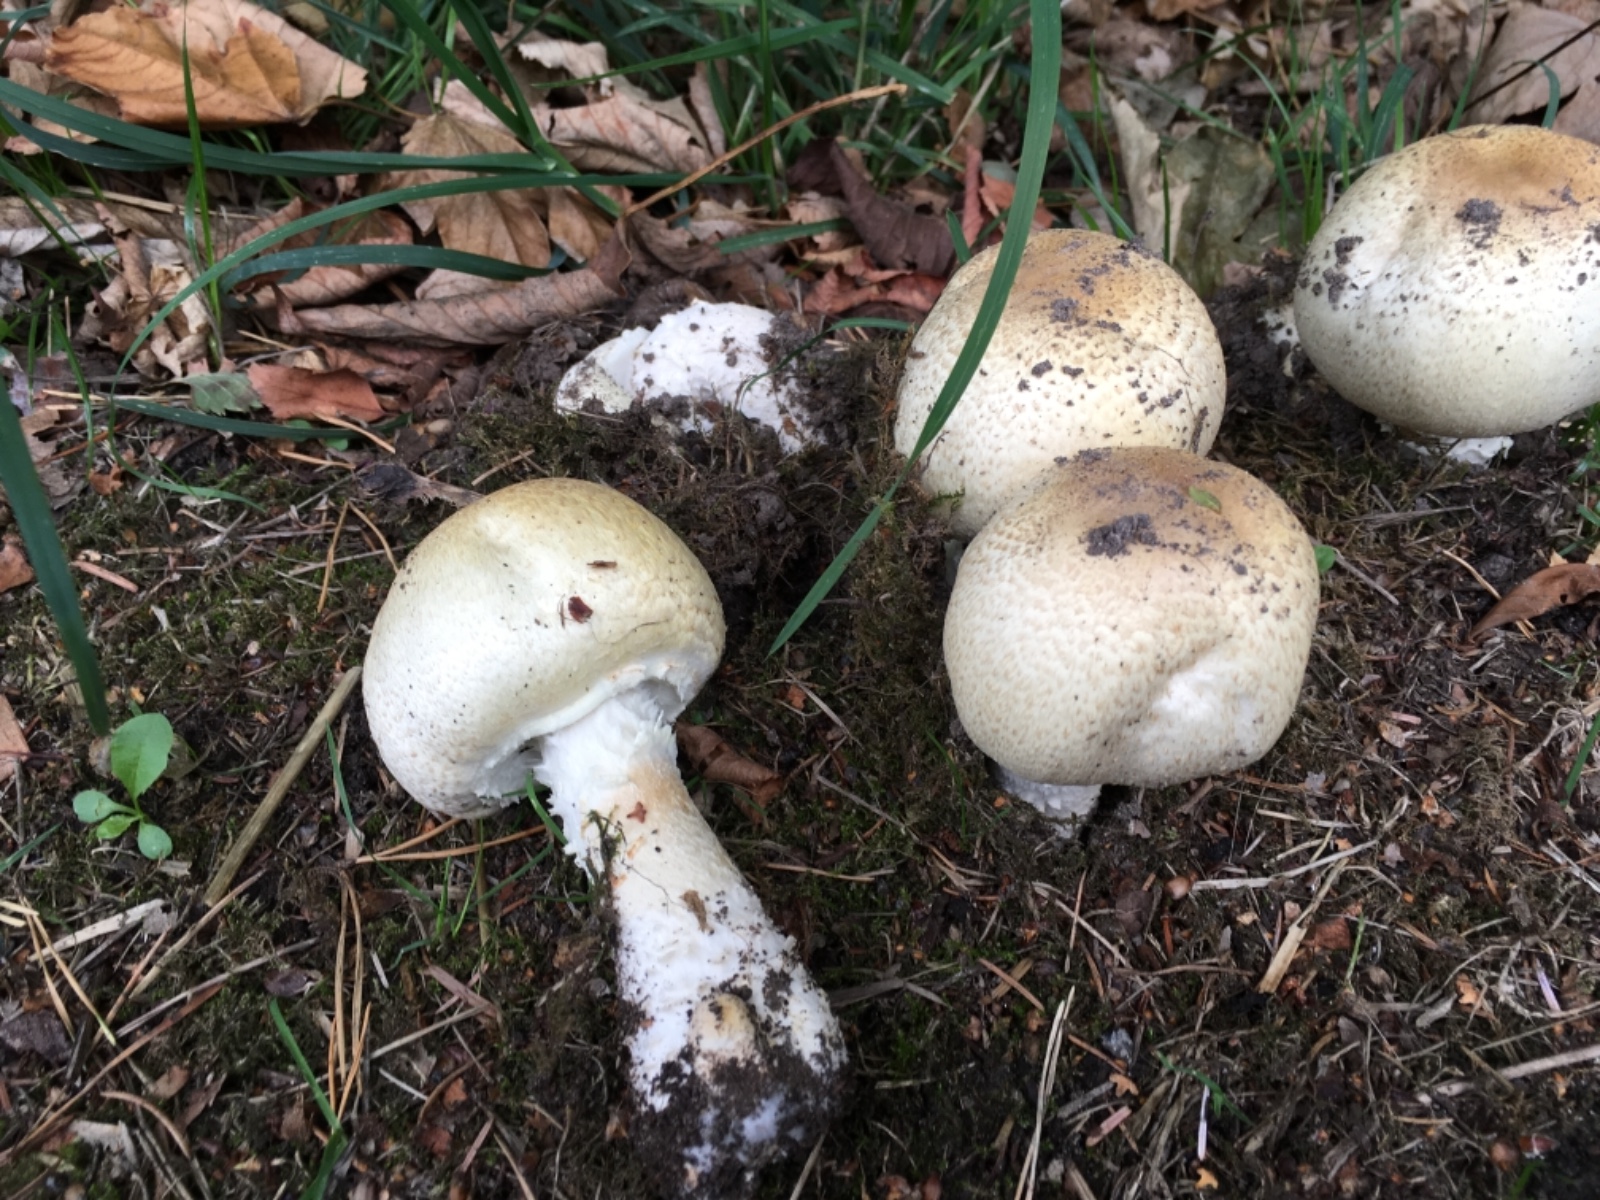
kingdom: Fungi
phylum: Basidiomycota
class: Agaricomycetes
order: Agaricales
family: Agaricaceae
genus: Agaricus
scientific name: Agaricus augustus
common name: prægtig champignon
